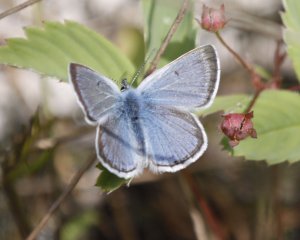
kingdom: Animalia
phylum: Arthropoda
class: Insecta
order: Lepidoptera
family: Lycaenidae
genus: Glaucopsyche
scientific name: Glaucopsyche lygdamus
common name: Silvery Blue
